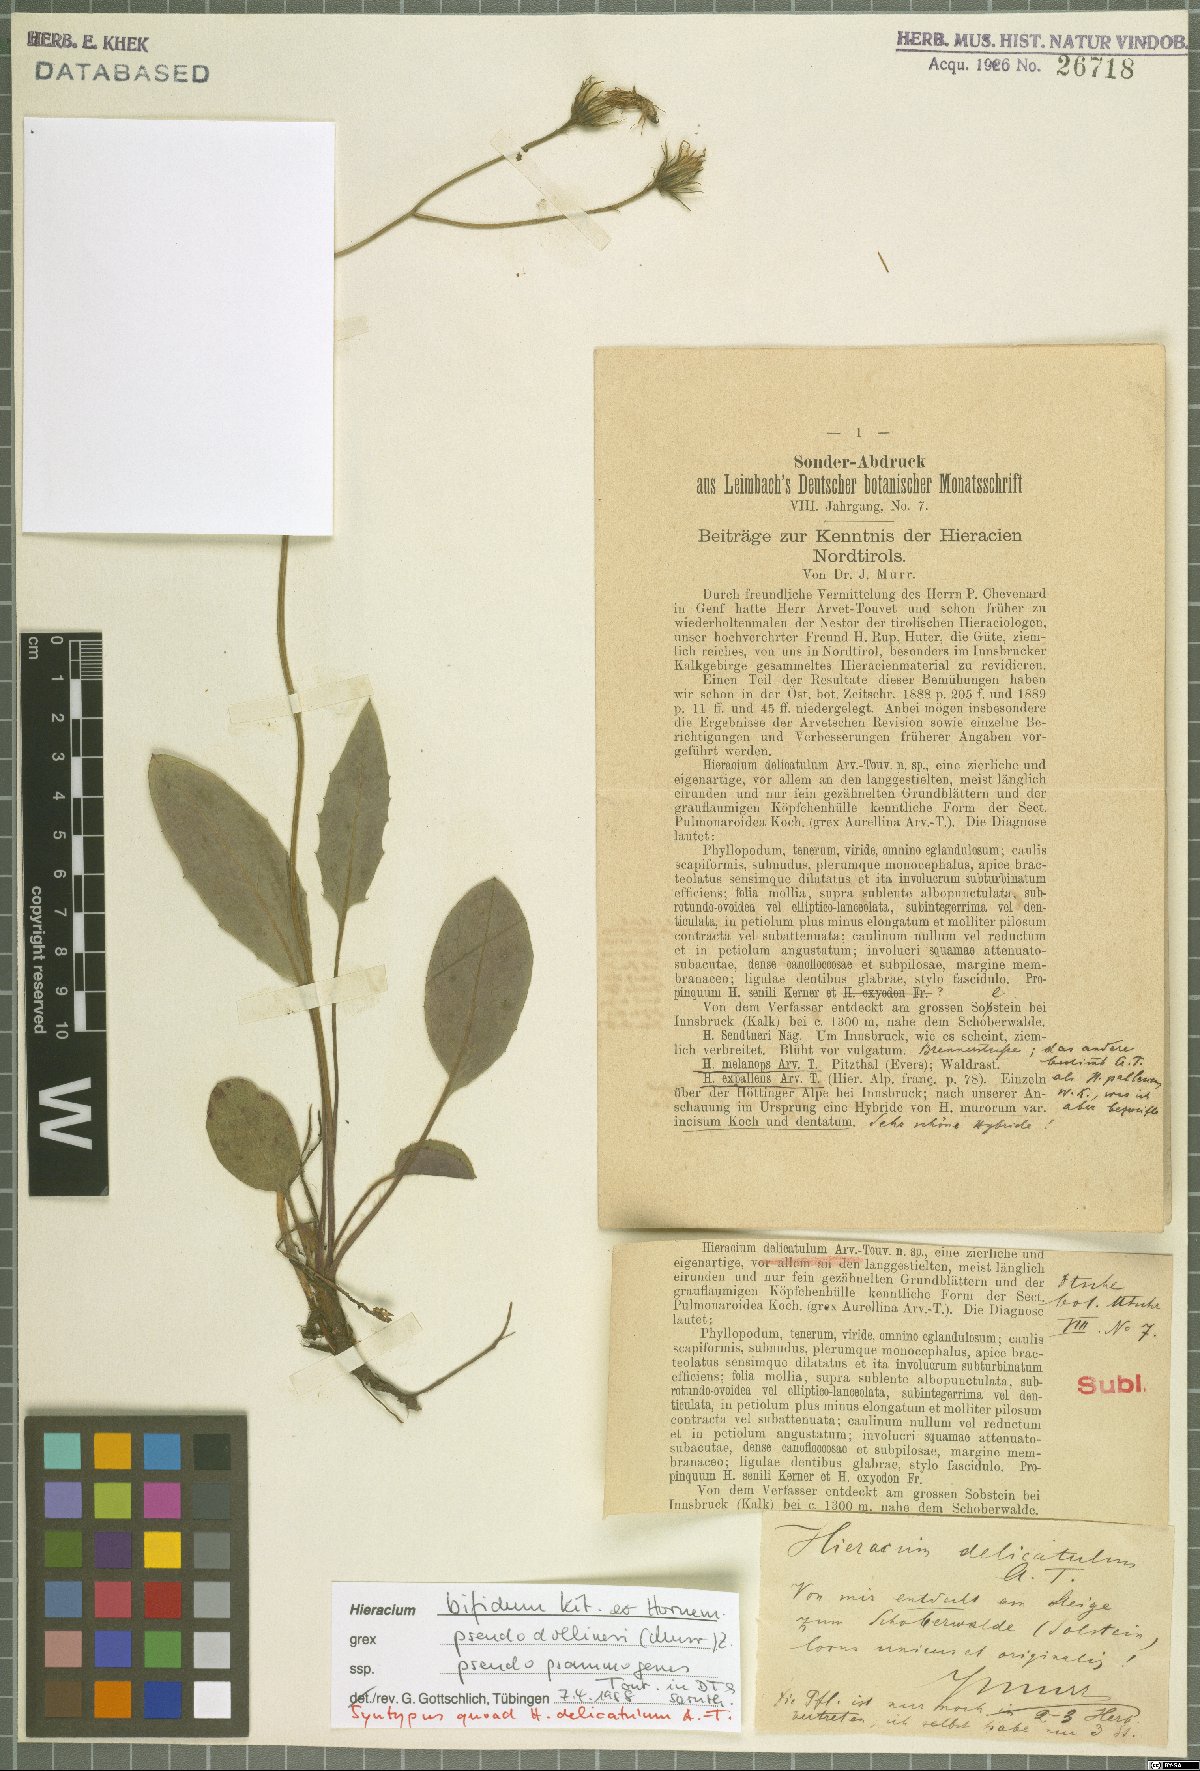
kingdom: Plantae
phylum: Tracheophyta
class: Magnoliopsida
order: Asterales
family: Asteraceae
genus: Hieracium
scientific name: Hieracium bifidum
